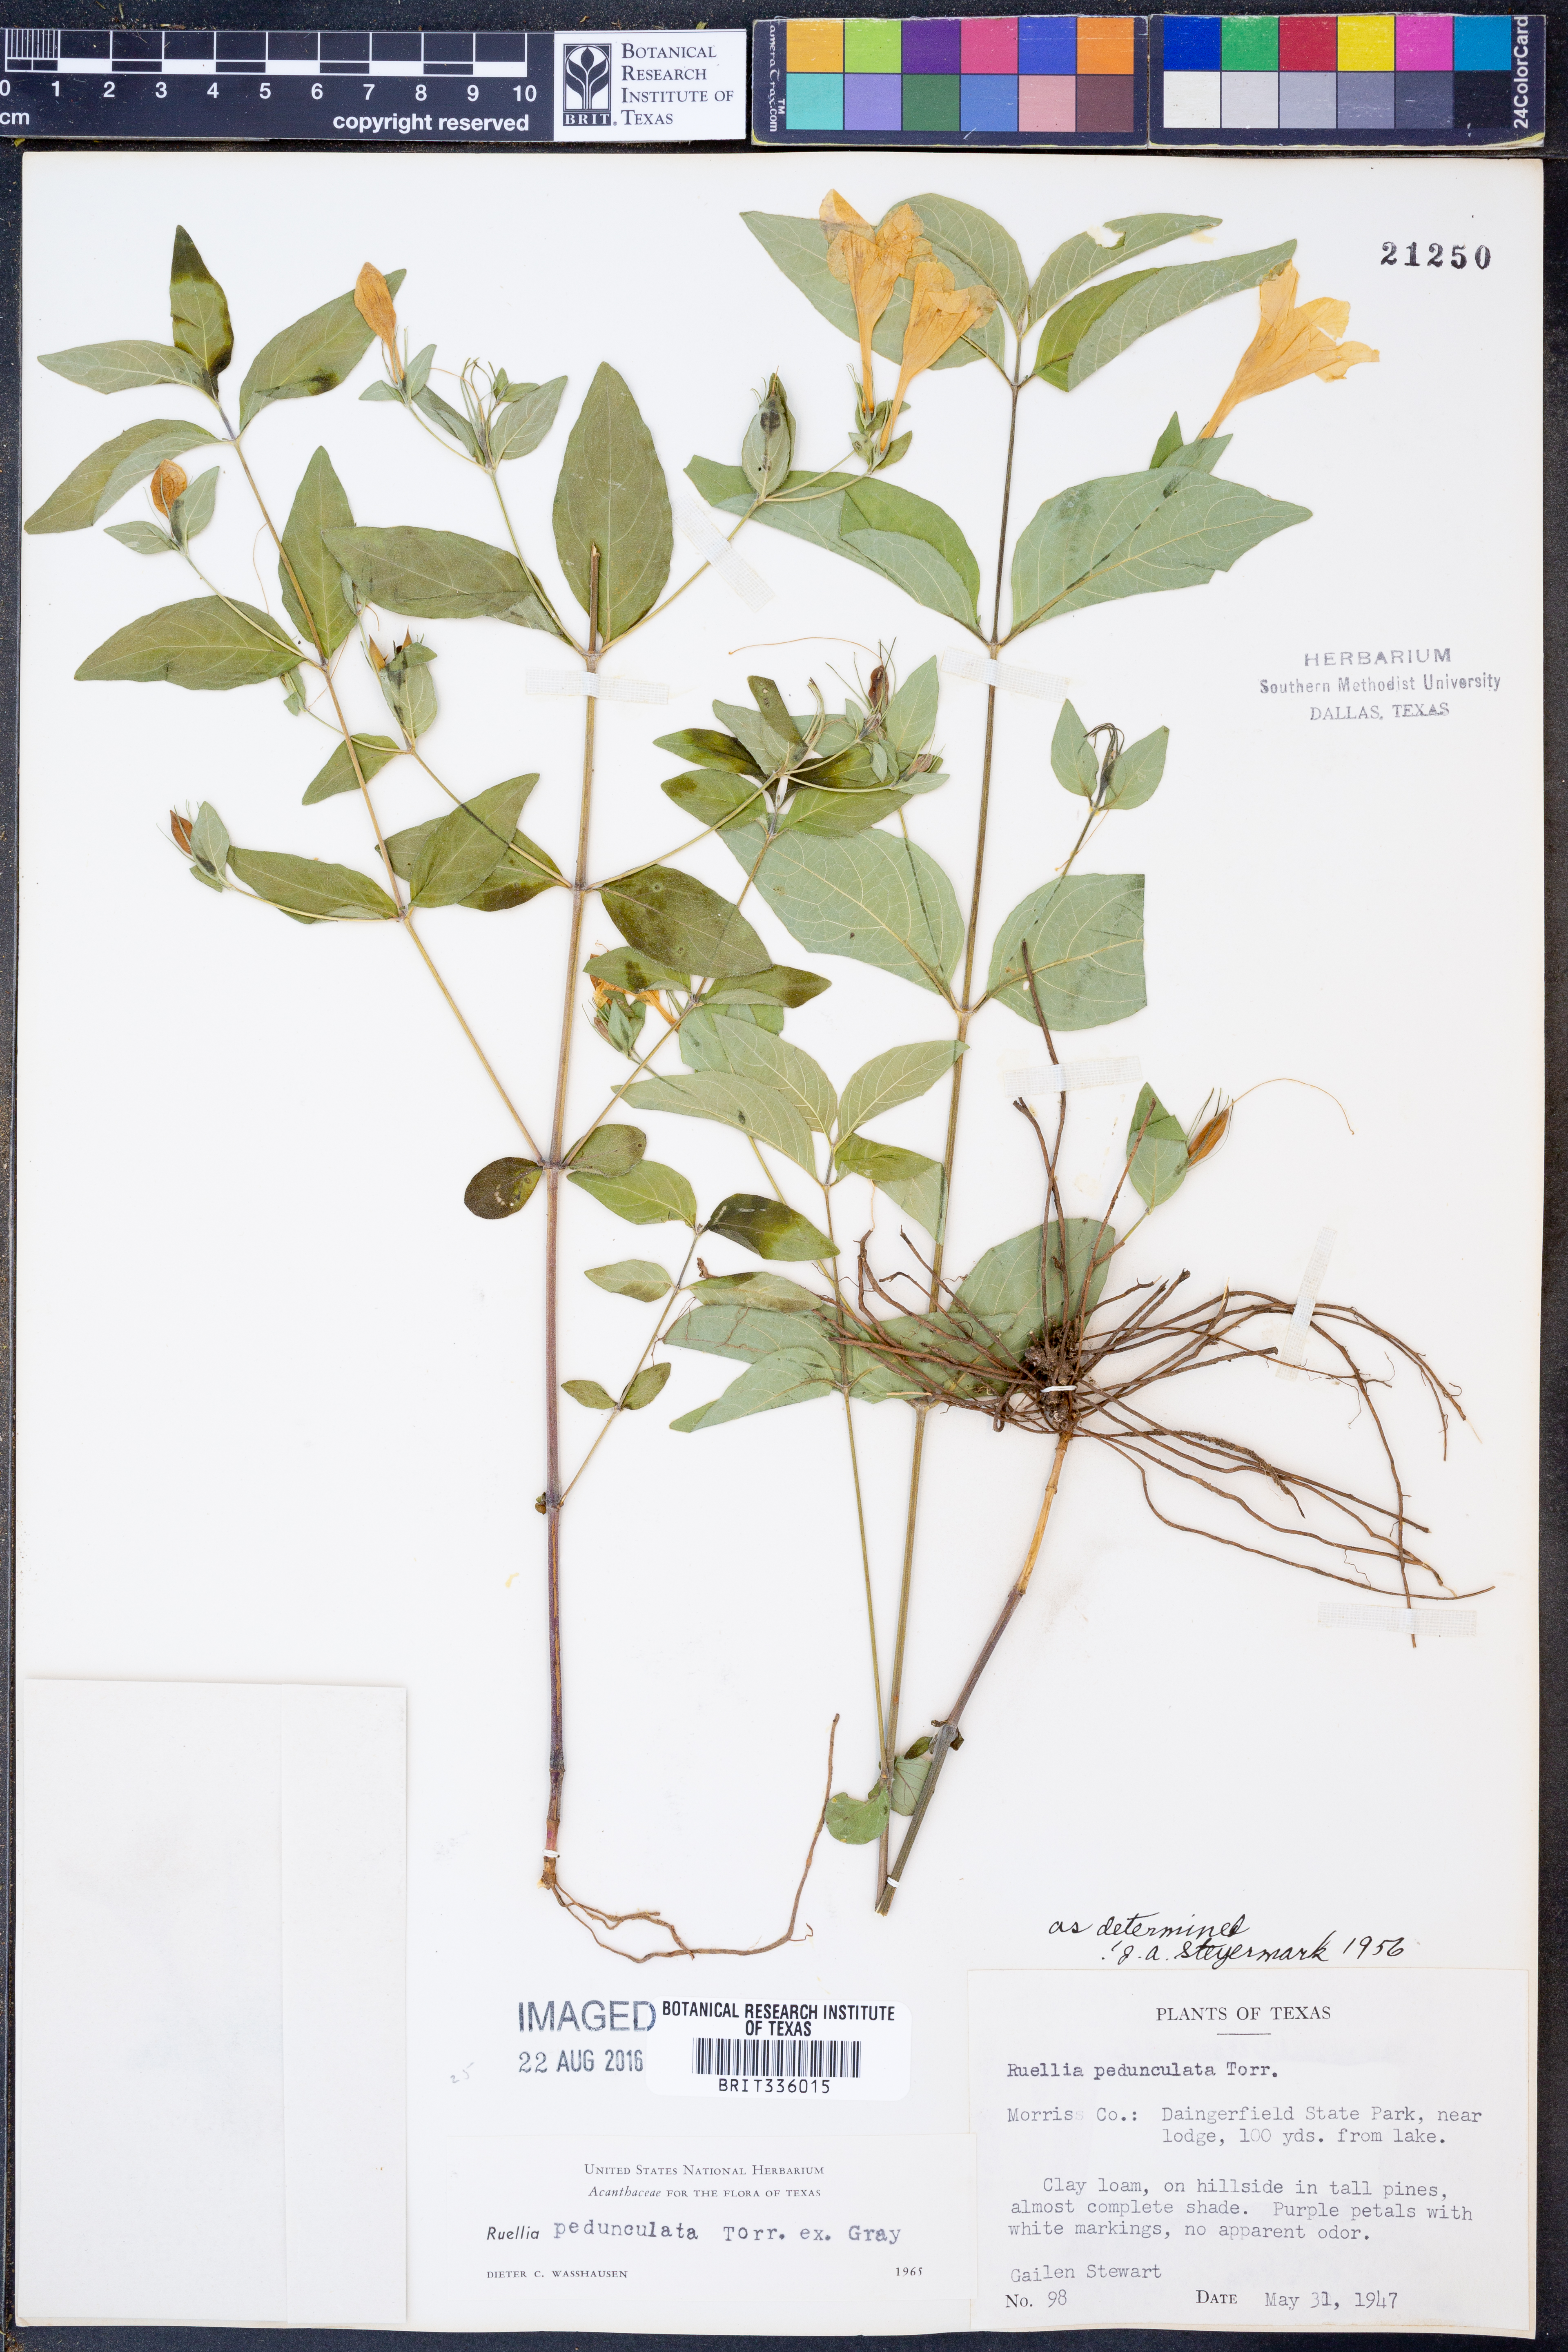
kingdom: Plantae
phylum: Tracheophyta
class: Magnoliopsida
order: Lamiales
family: Acanthaceae
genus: Ruellia
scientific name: Ruellia pedunculata
